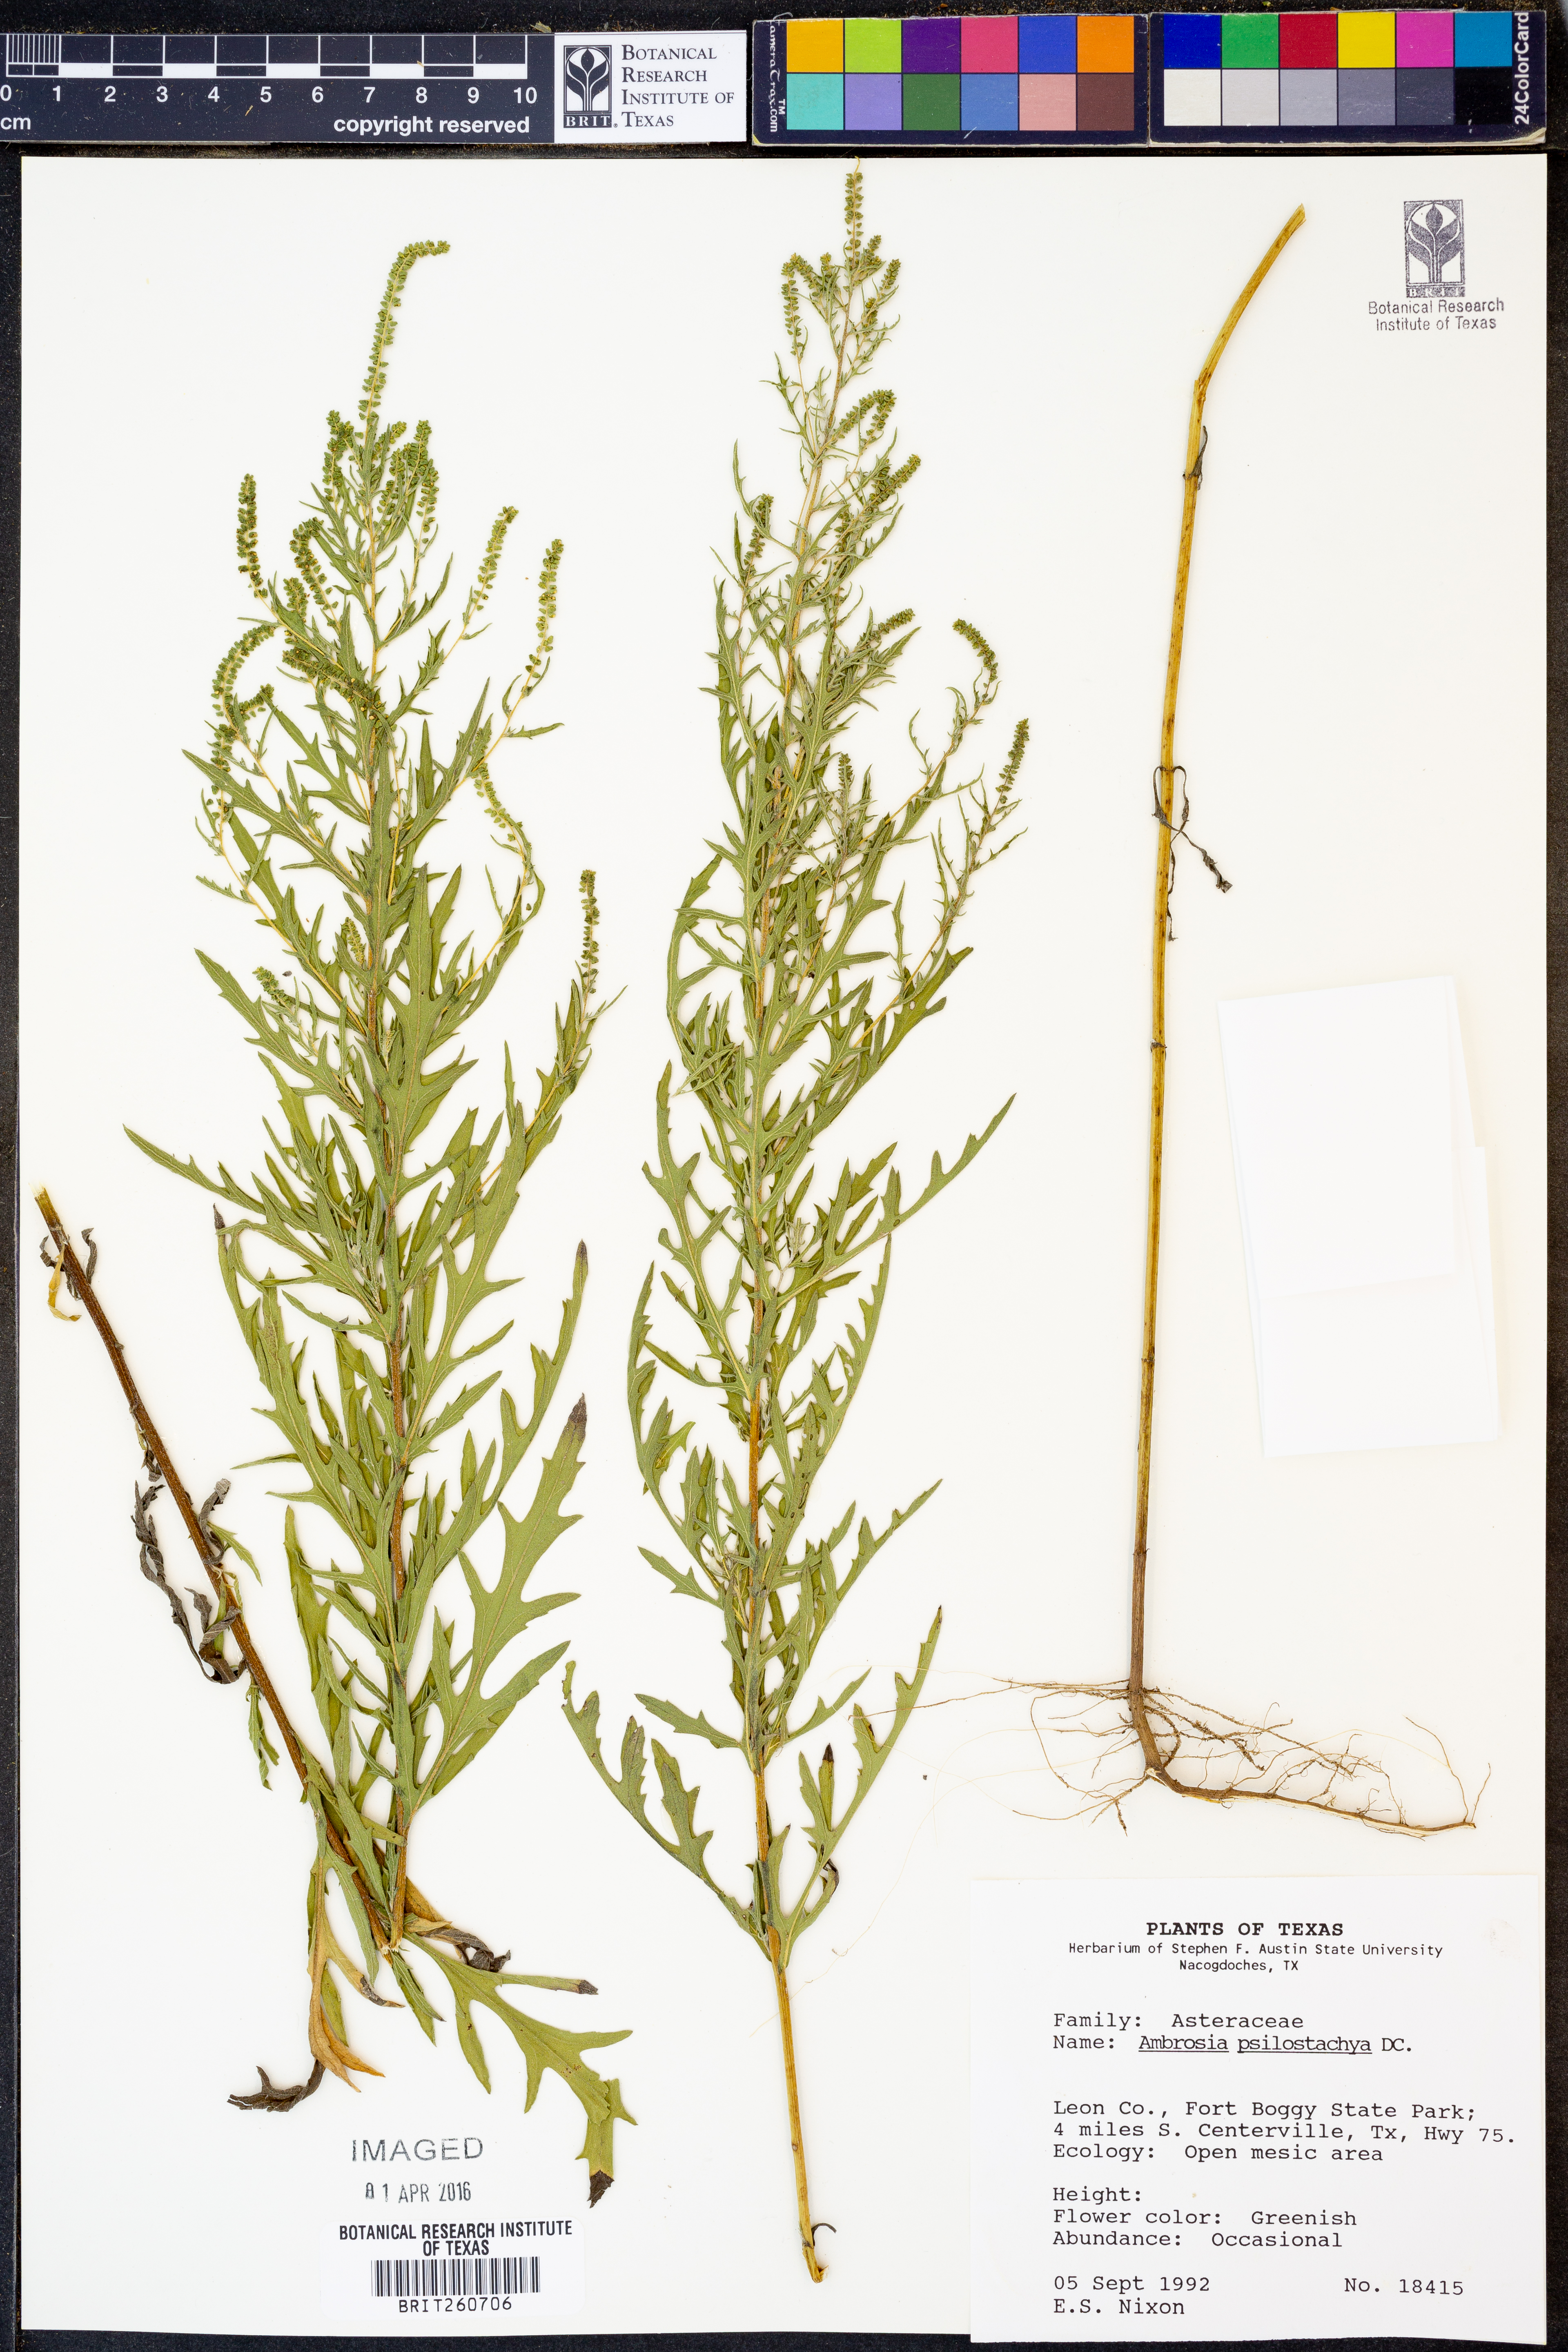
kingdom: Plantae
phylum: Tracheophyta
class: Magnoliopsida
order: Asterales
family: Asteraceae
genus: Ambrosia
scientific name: Ambrosia psilostachya
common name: Perennial ragweed
